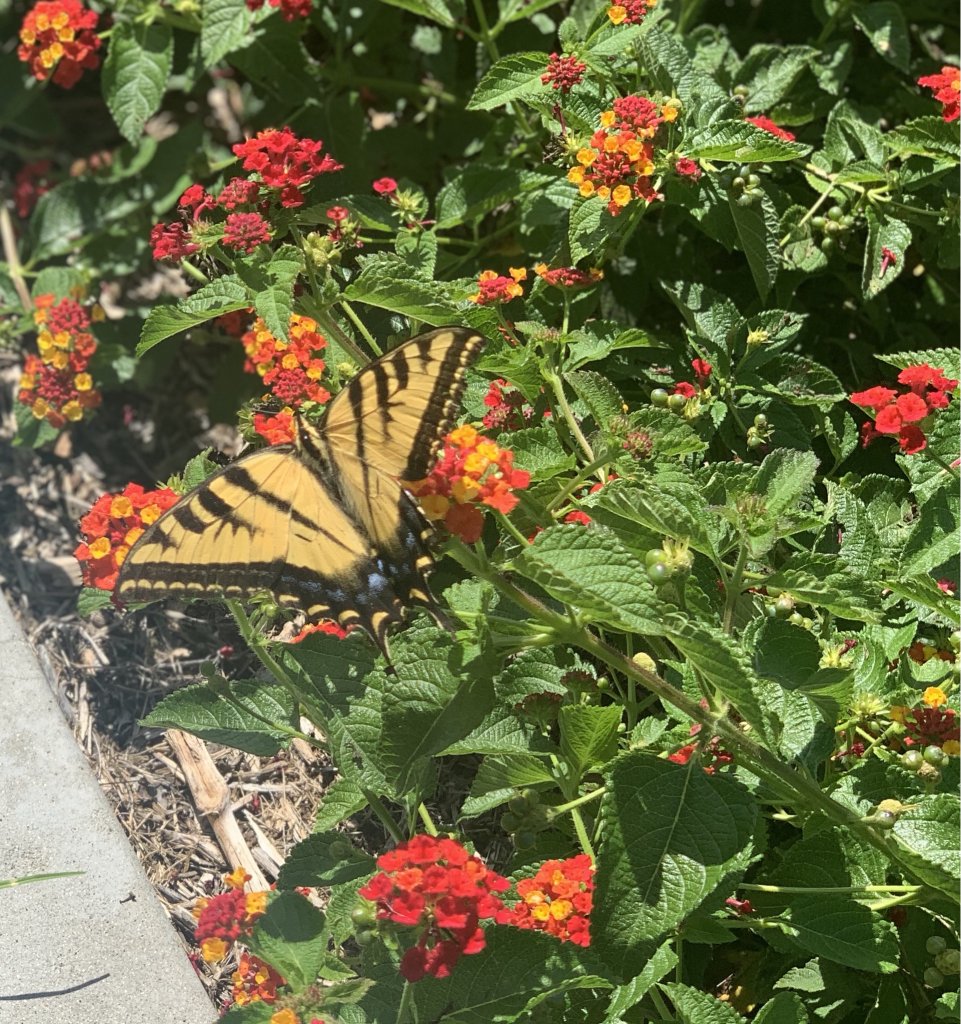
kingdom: Animalia
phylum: Arthropoda
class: Insecta
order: Lepidoptera
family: Papilionidae
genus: Pterourus
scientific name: Pterourus rutulus
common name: Western Tiger Swallowtail
